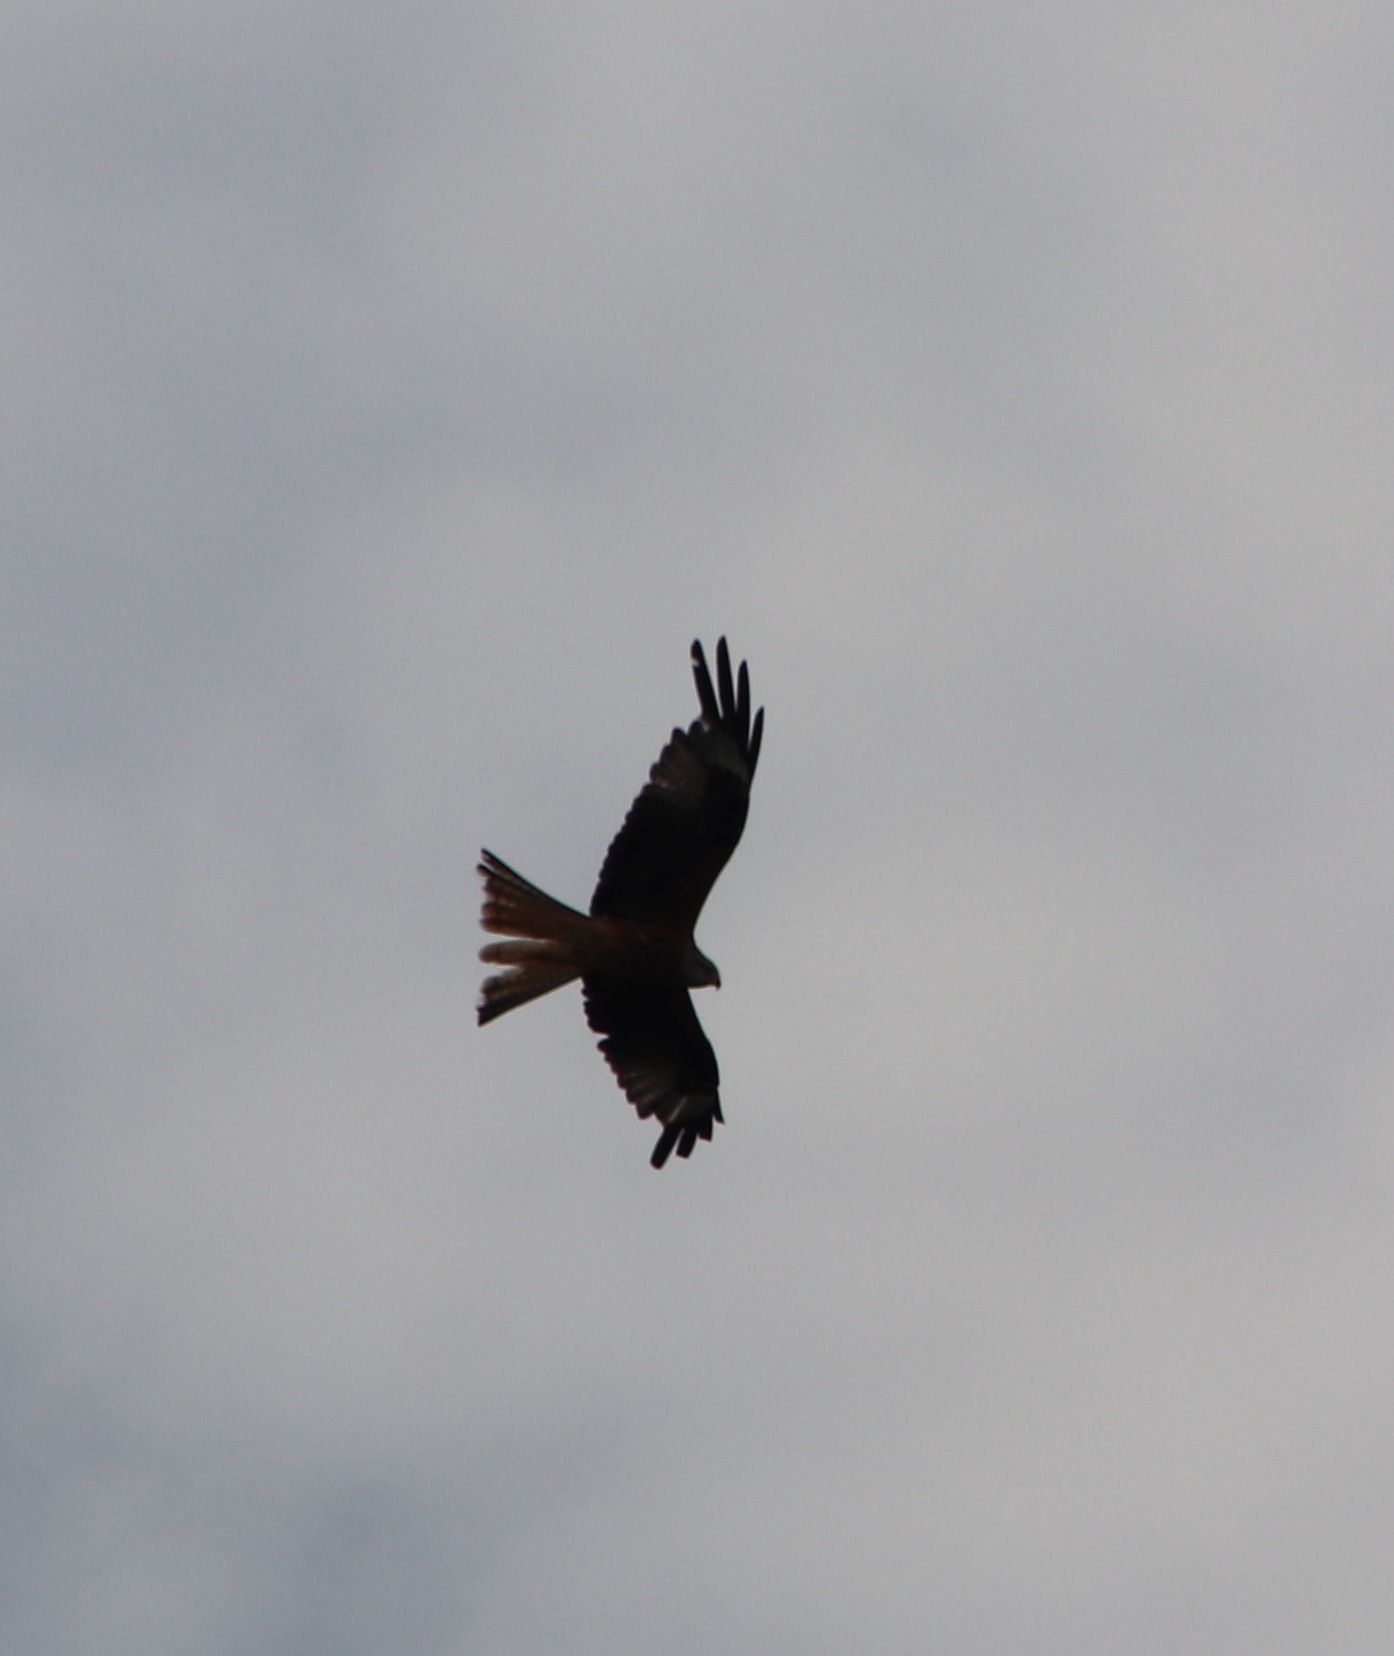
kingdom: Animalia
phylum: Chordata
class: Aves
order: Accipitriformes
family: Accipitridae
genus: Milvus
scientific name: Milvus milvus
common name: Rød glente
